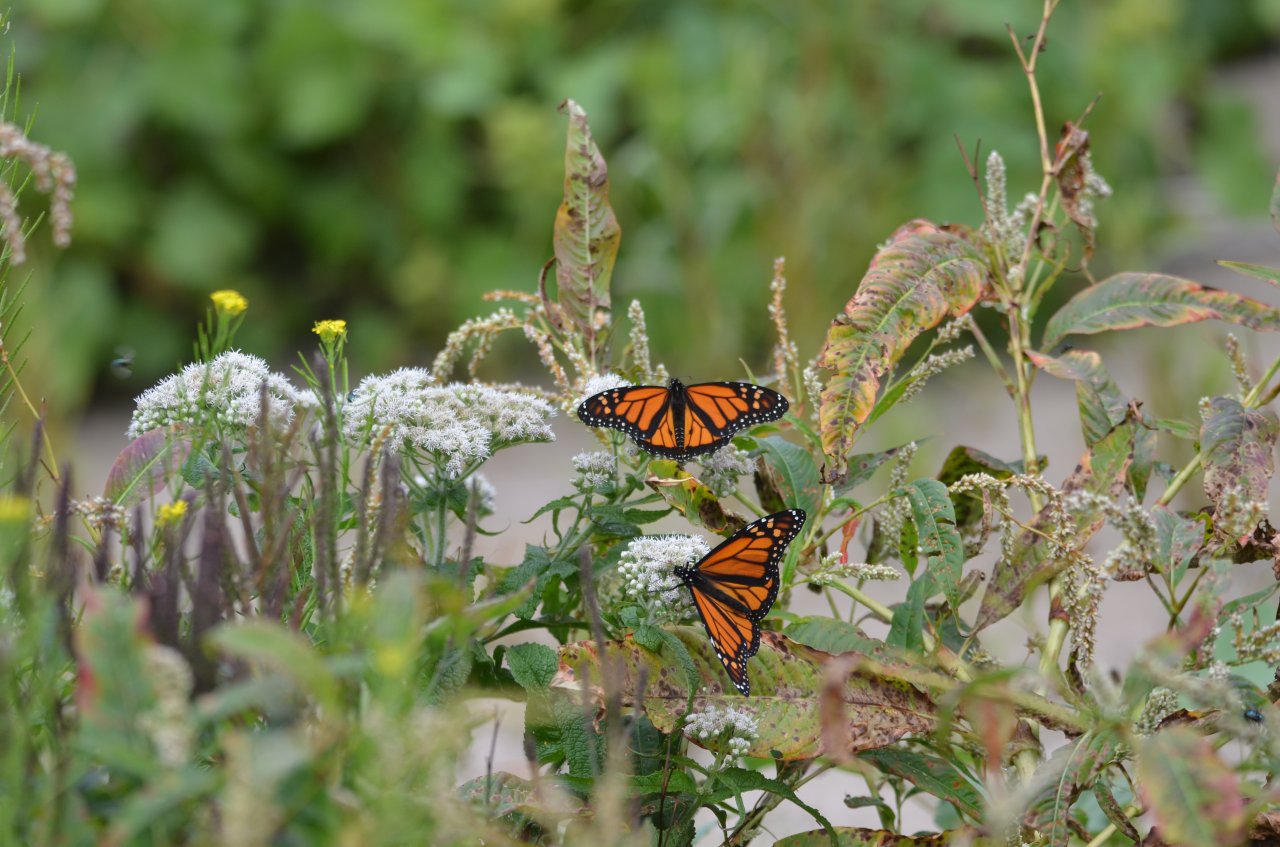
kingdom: Animalia
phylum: Arthropoda
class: Insecta
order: Lepidoptera
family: Nymphalidae
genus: Danaus
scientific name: Danaus plexippus
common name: Monarch
